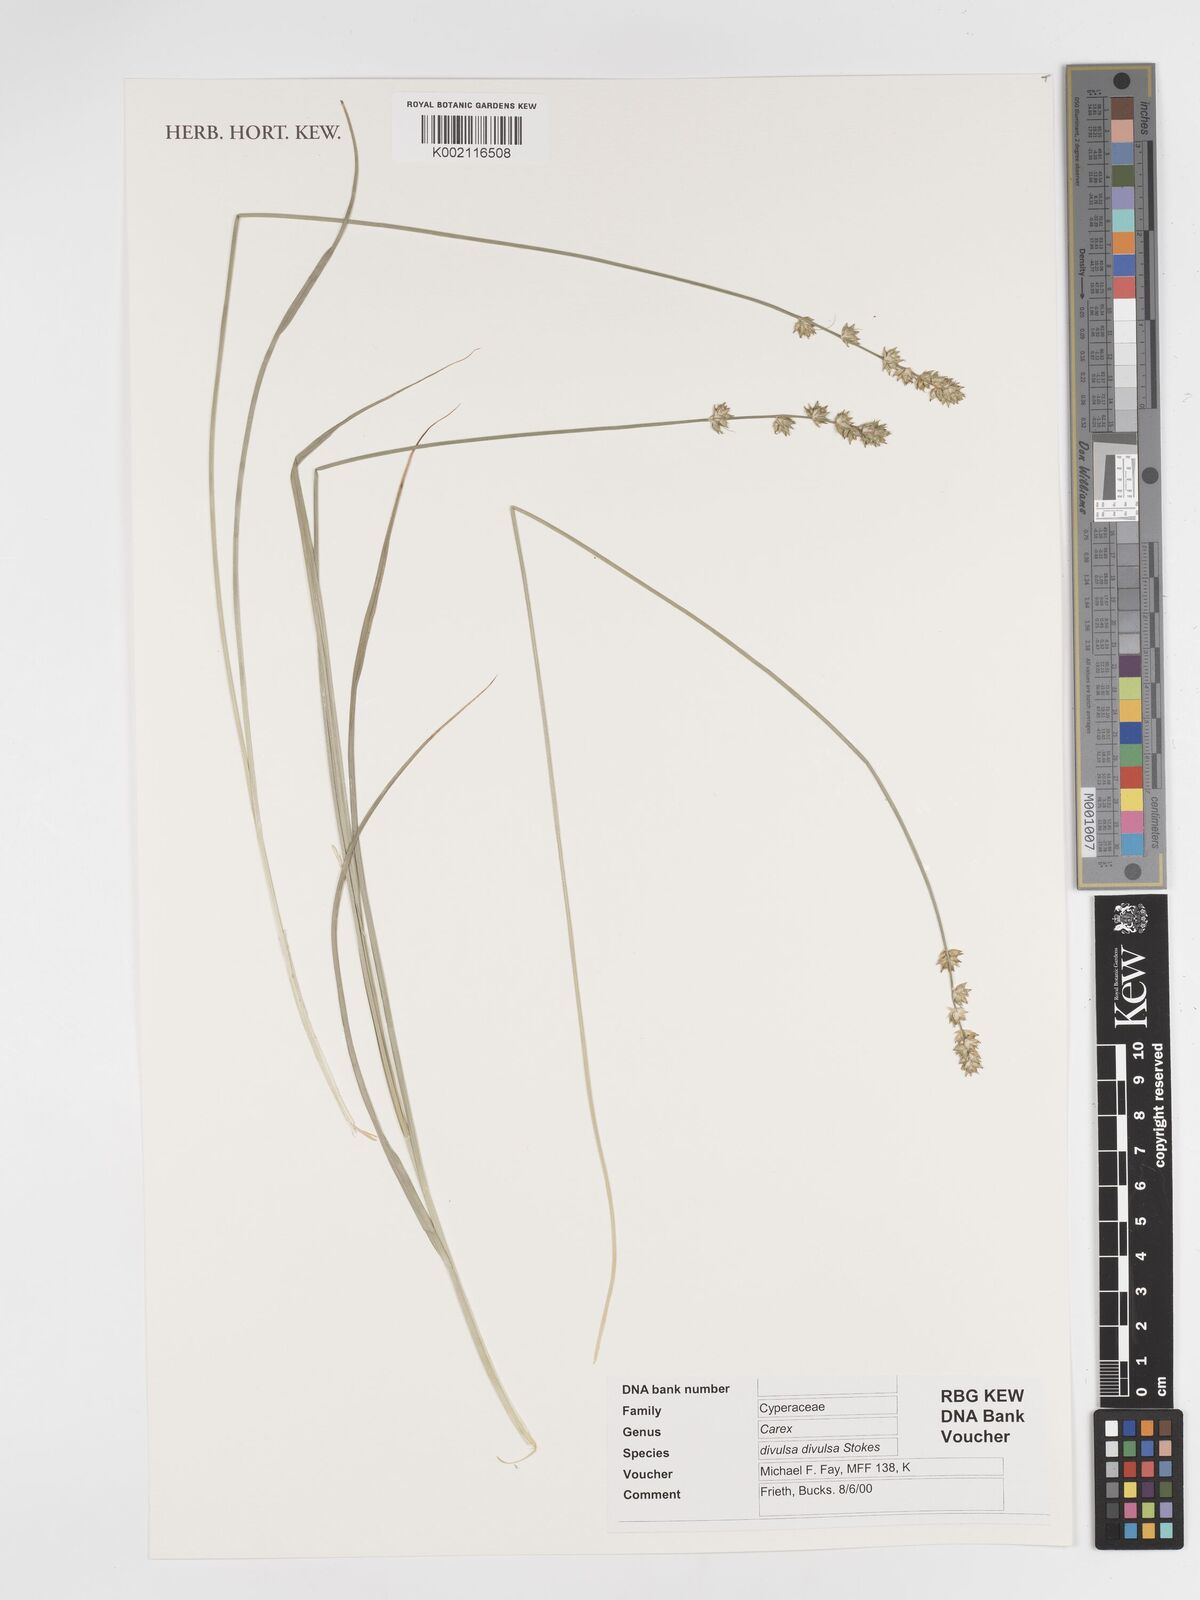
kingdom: Plantae
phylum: Tracheophyta
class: Liliopsida
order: Poales
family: Cyperaceae
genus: Carex
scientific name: Carex divulsa
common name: Grassland sedge
